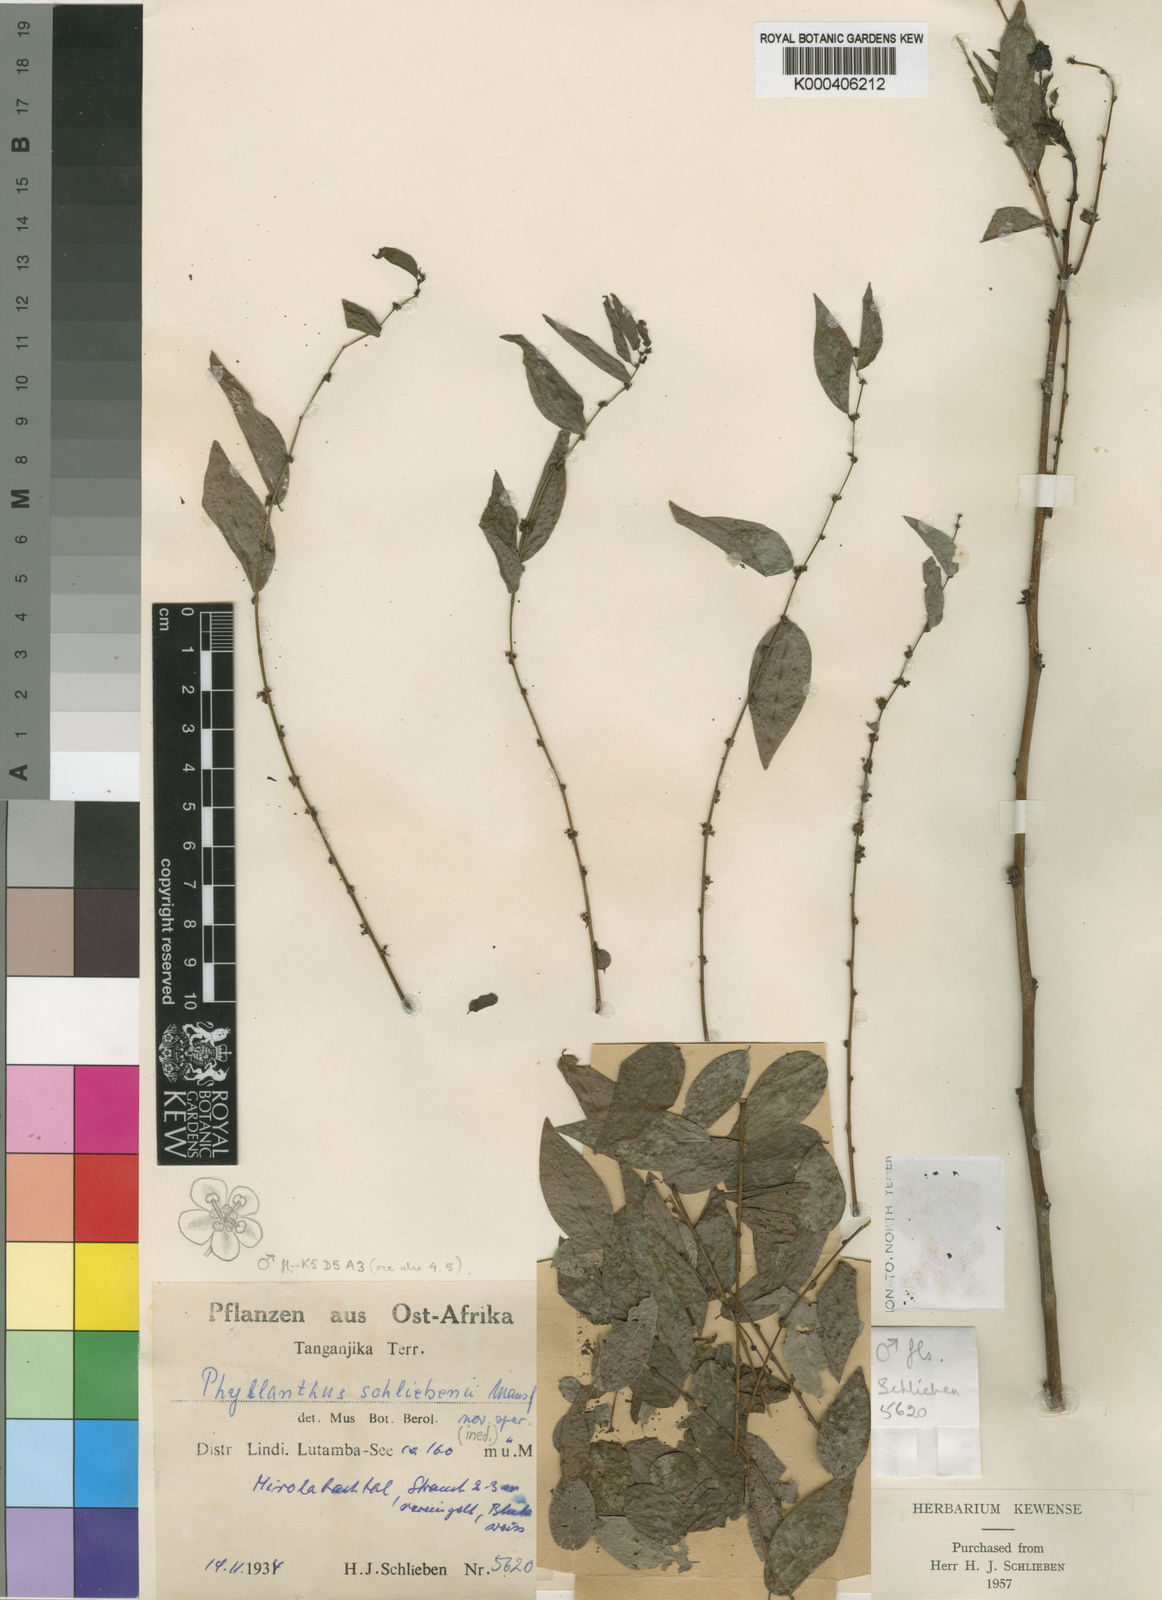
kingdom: Plantae
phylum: Tracheophyta
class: Magnoliopsida
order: Malpighiales
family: Phyllanthaceae
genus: Phyllanthus
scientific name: Phyllanthus schliebenii
